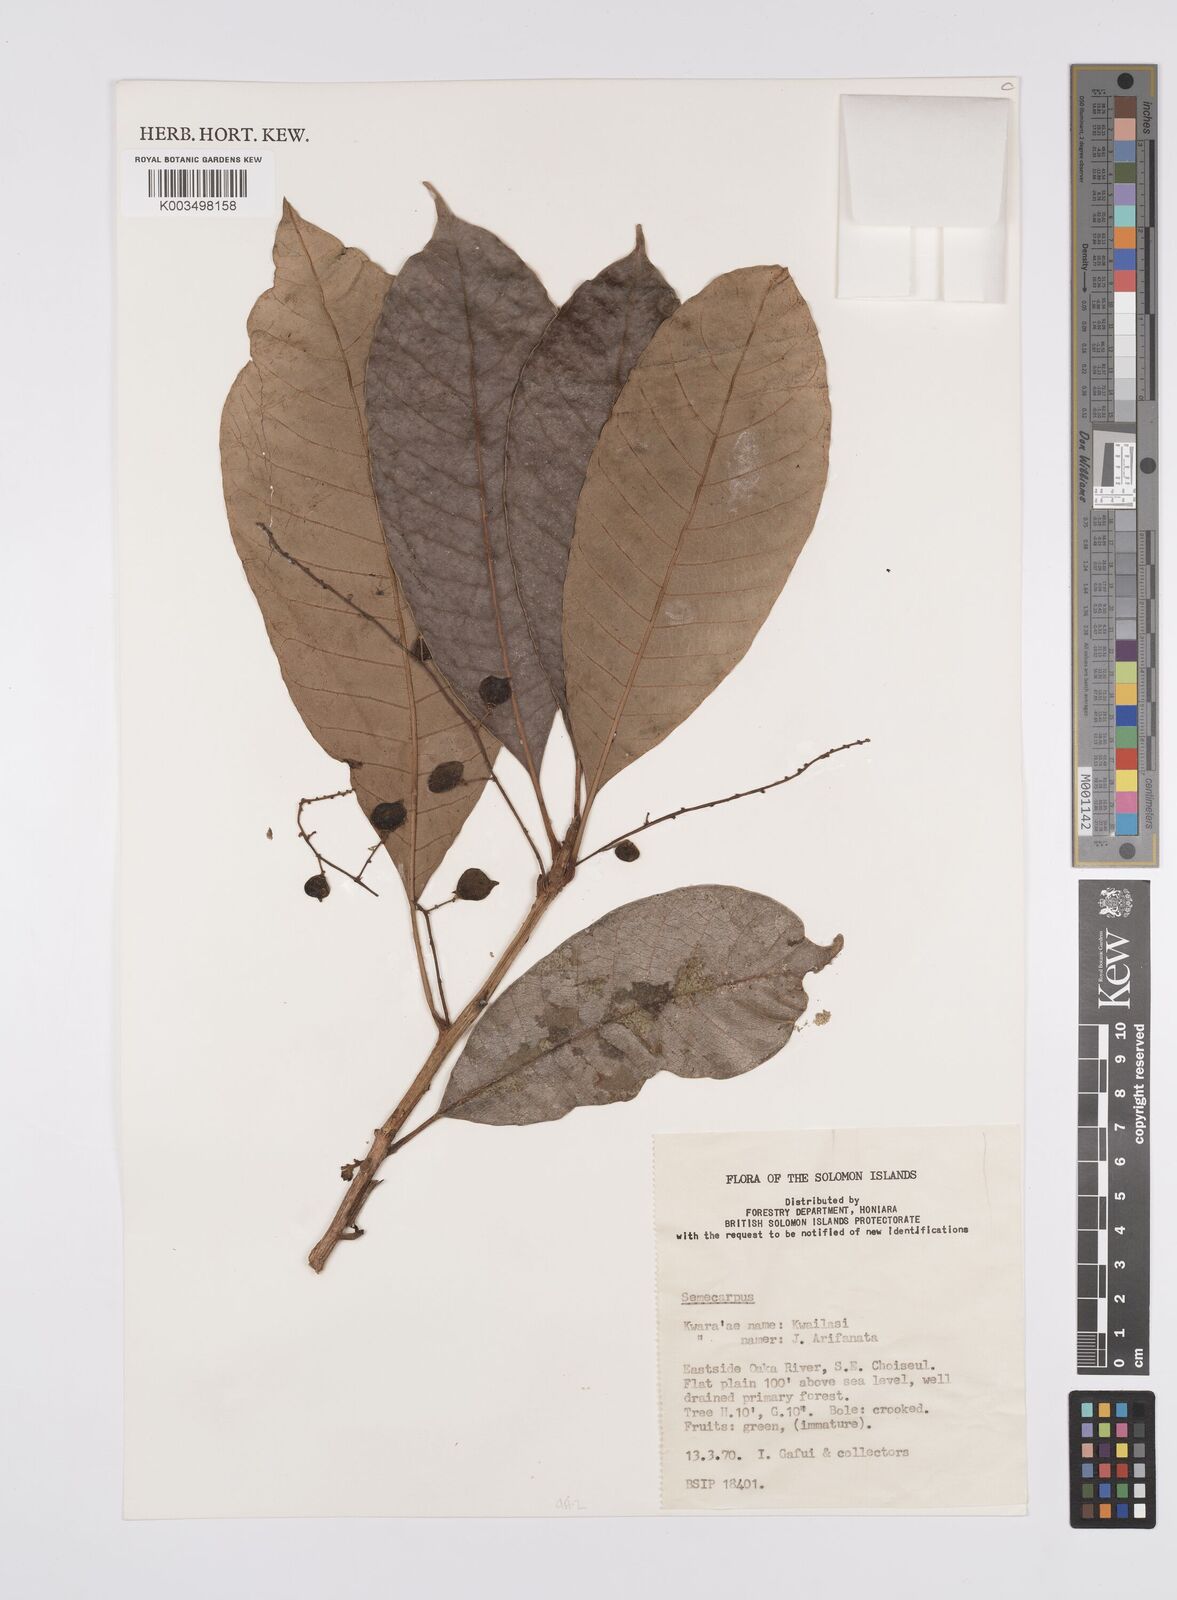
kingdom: Plantae
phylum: Tracheophyta
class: Magnoliopsida
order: Sapindales
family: Anacardiaceae
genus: Semecarpus
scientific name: Semecarpus
